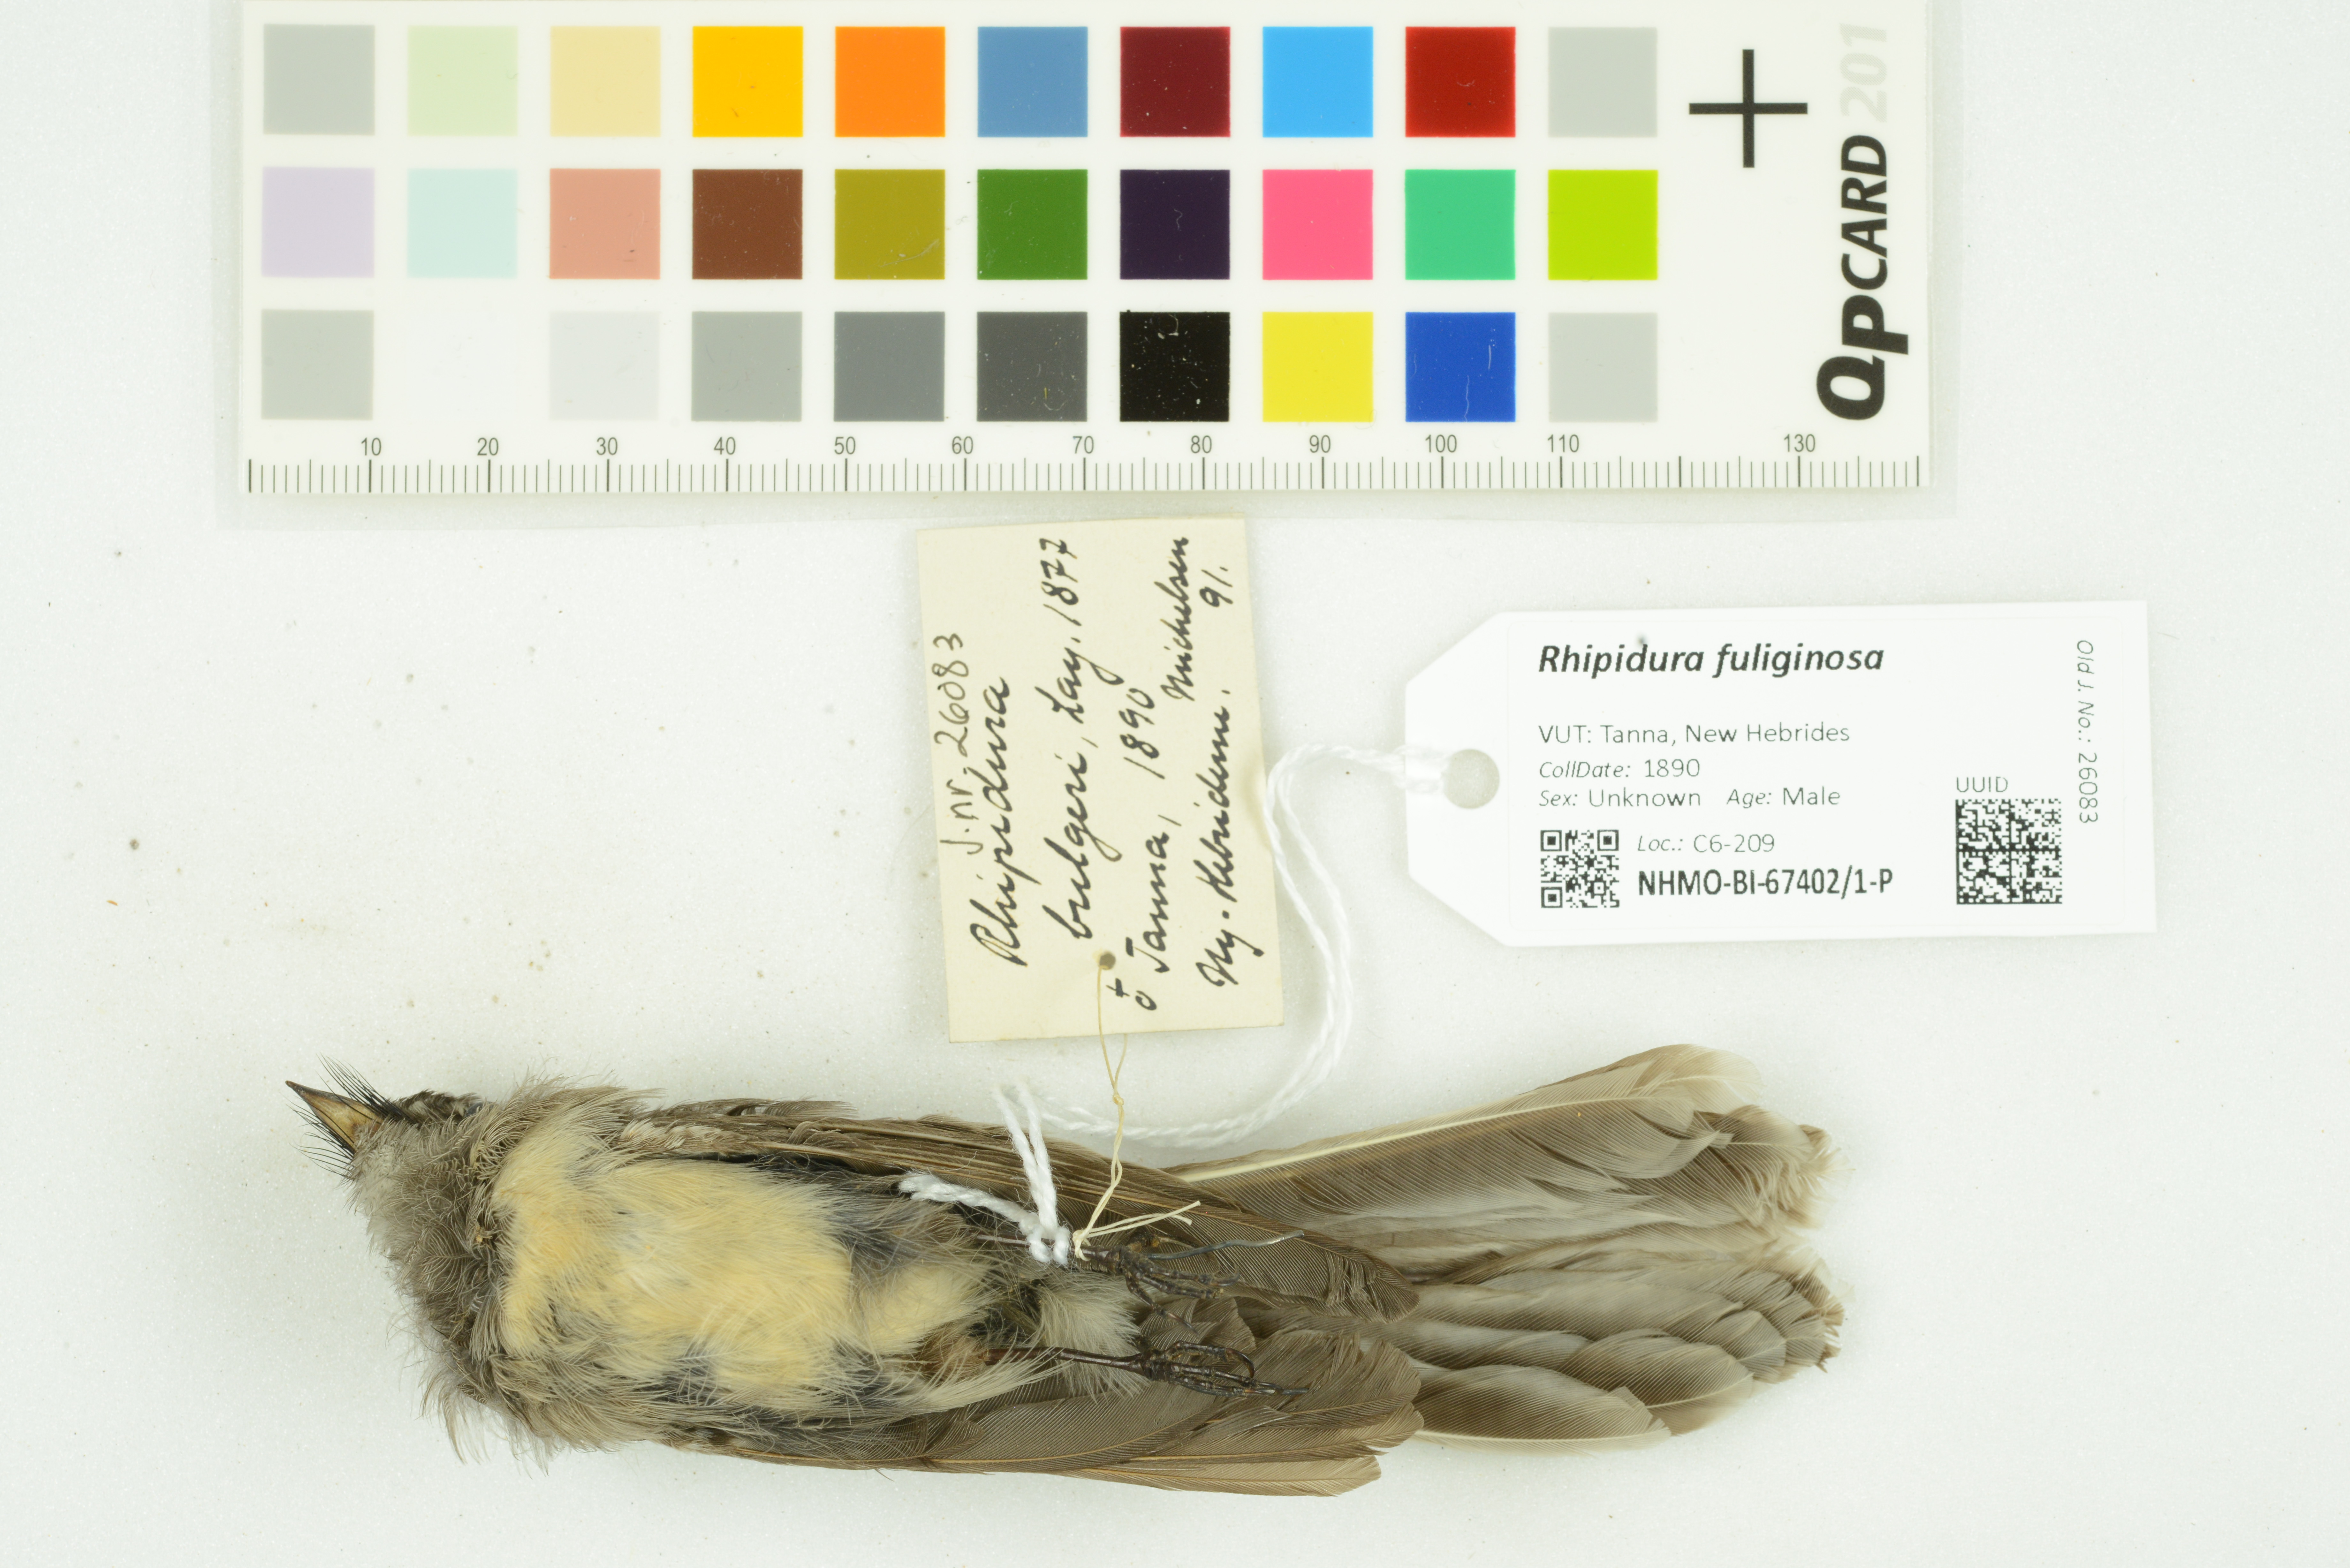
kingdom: Animalia
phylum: Chordata
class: Aves
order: Passeriformes
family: Rhipiduridae
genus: Rhipidura
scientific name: Rhipidura albiscapa
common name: Grey fantail
